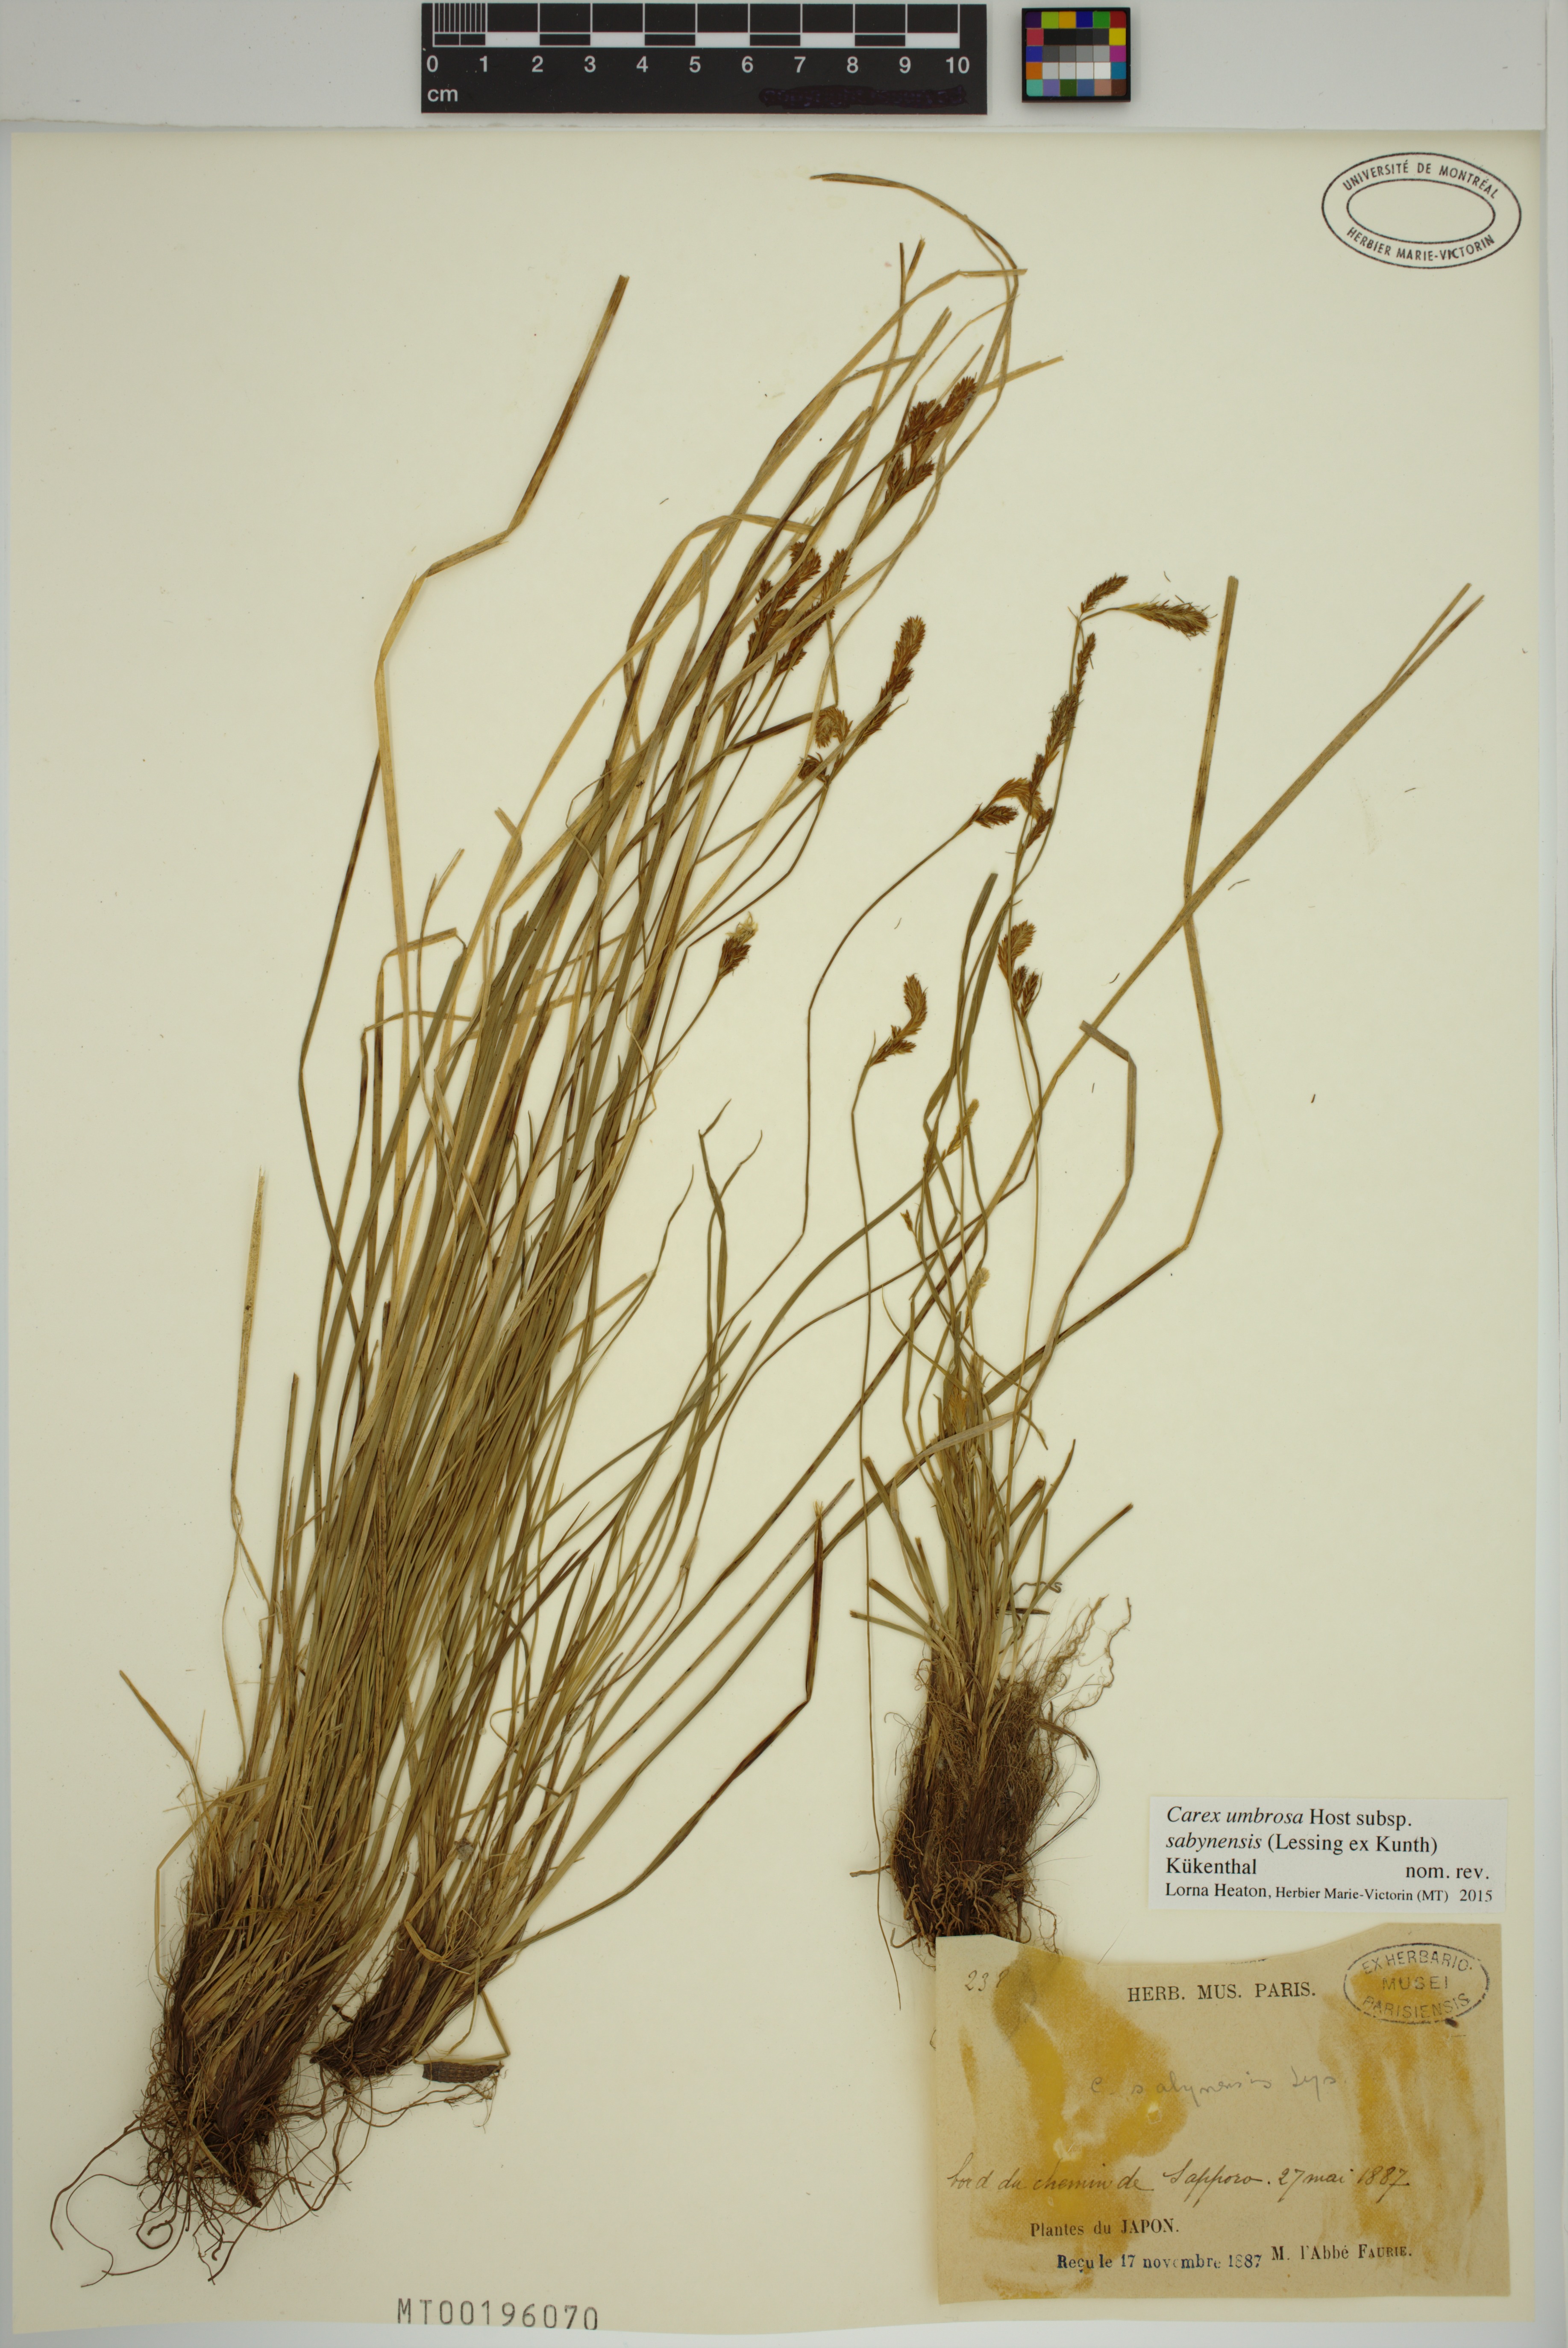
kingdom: Plantae
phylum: Tracheophyta
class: Liliopsida
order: Poales
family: Cyperaceae
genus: Carex
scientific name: Carex umbrosa
